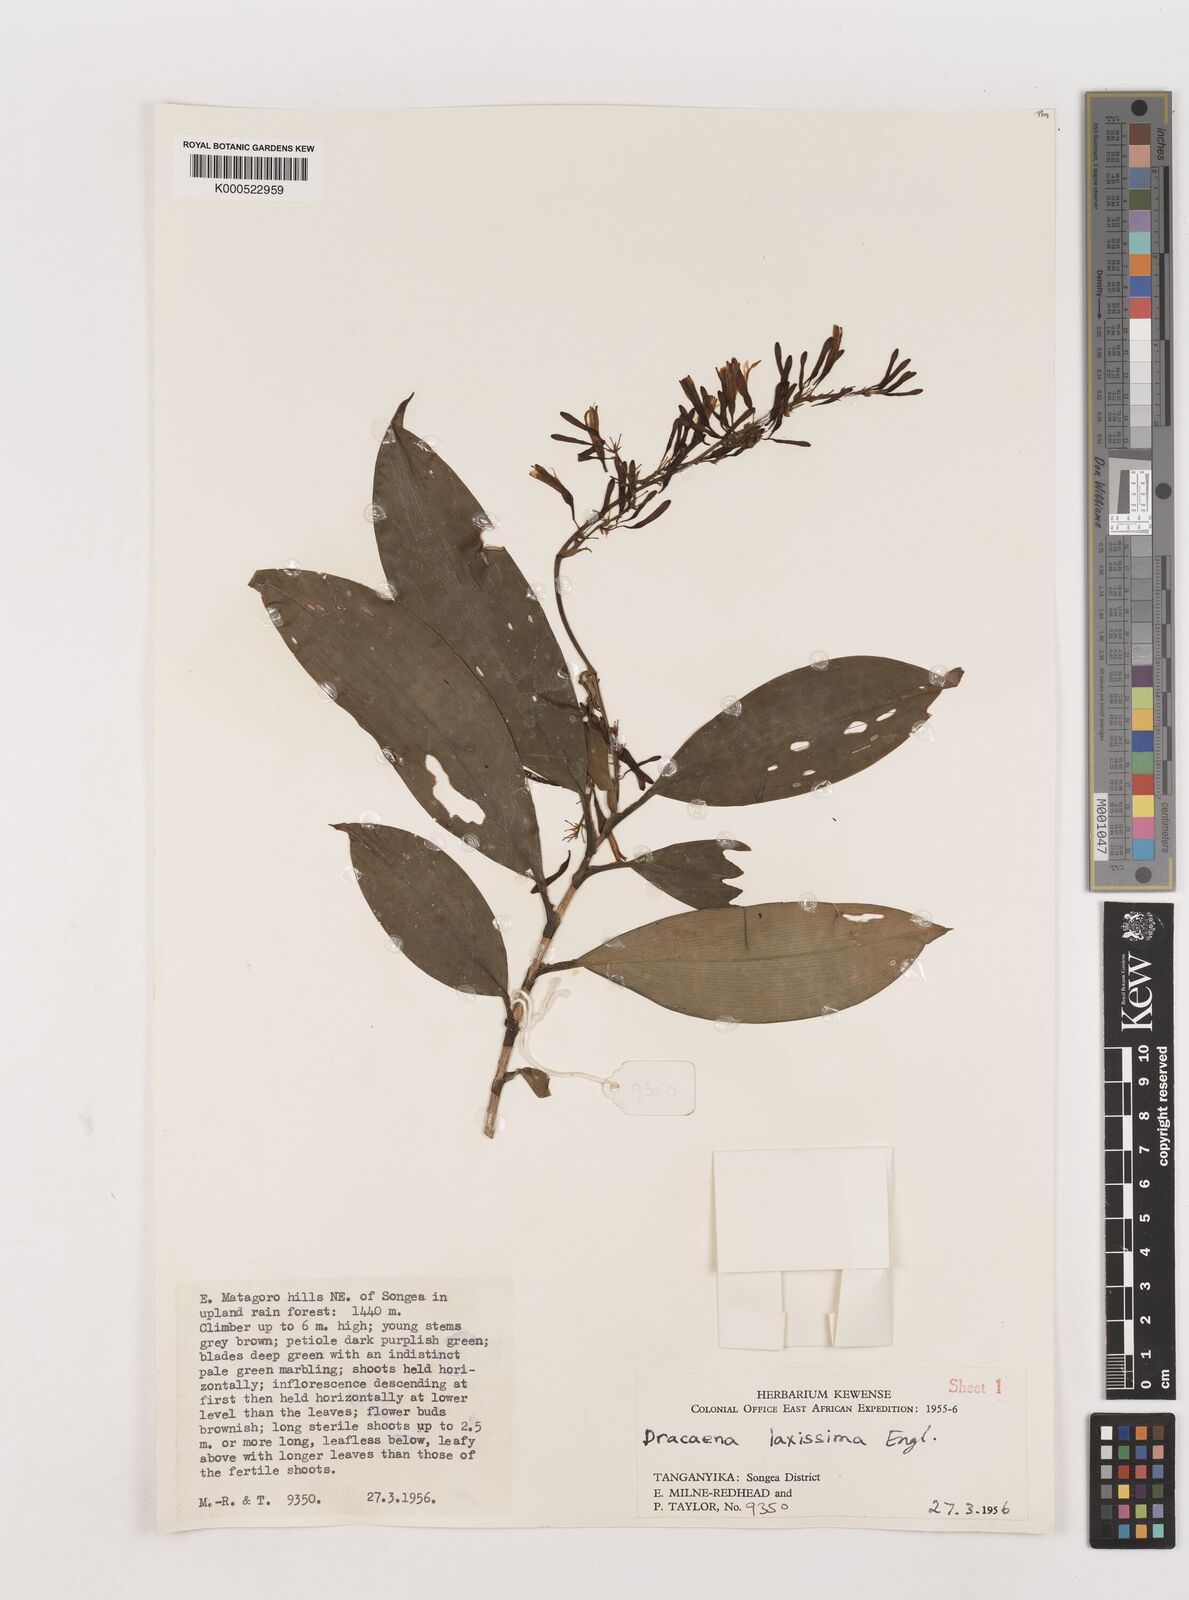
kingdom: Plantae
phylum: Tracheophyta
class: Liliopsida
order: Asparagales
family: Asparagaceae
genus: Dracaena
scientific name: Dracaena laxissima
